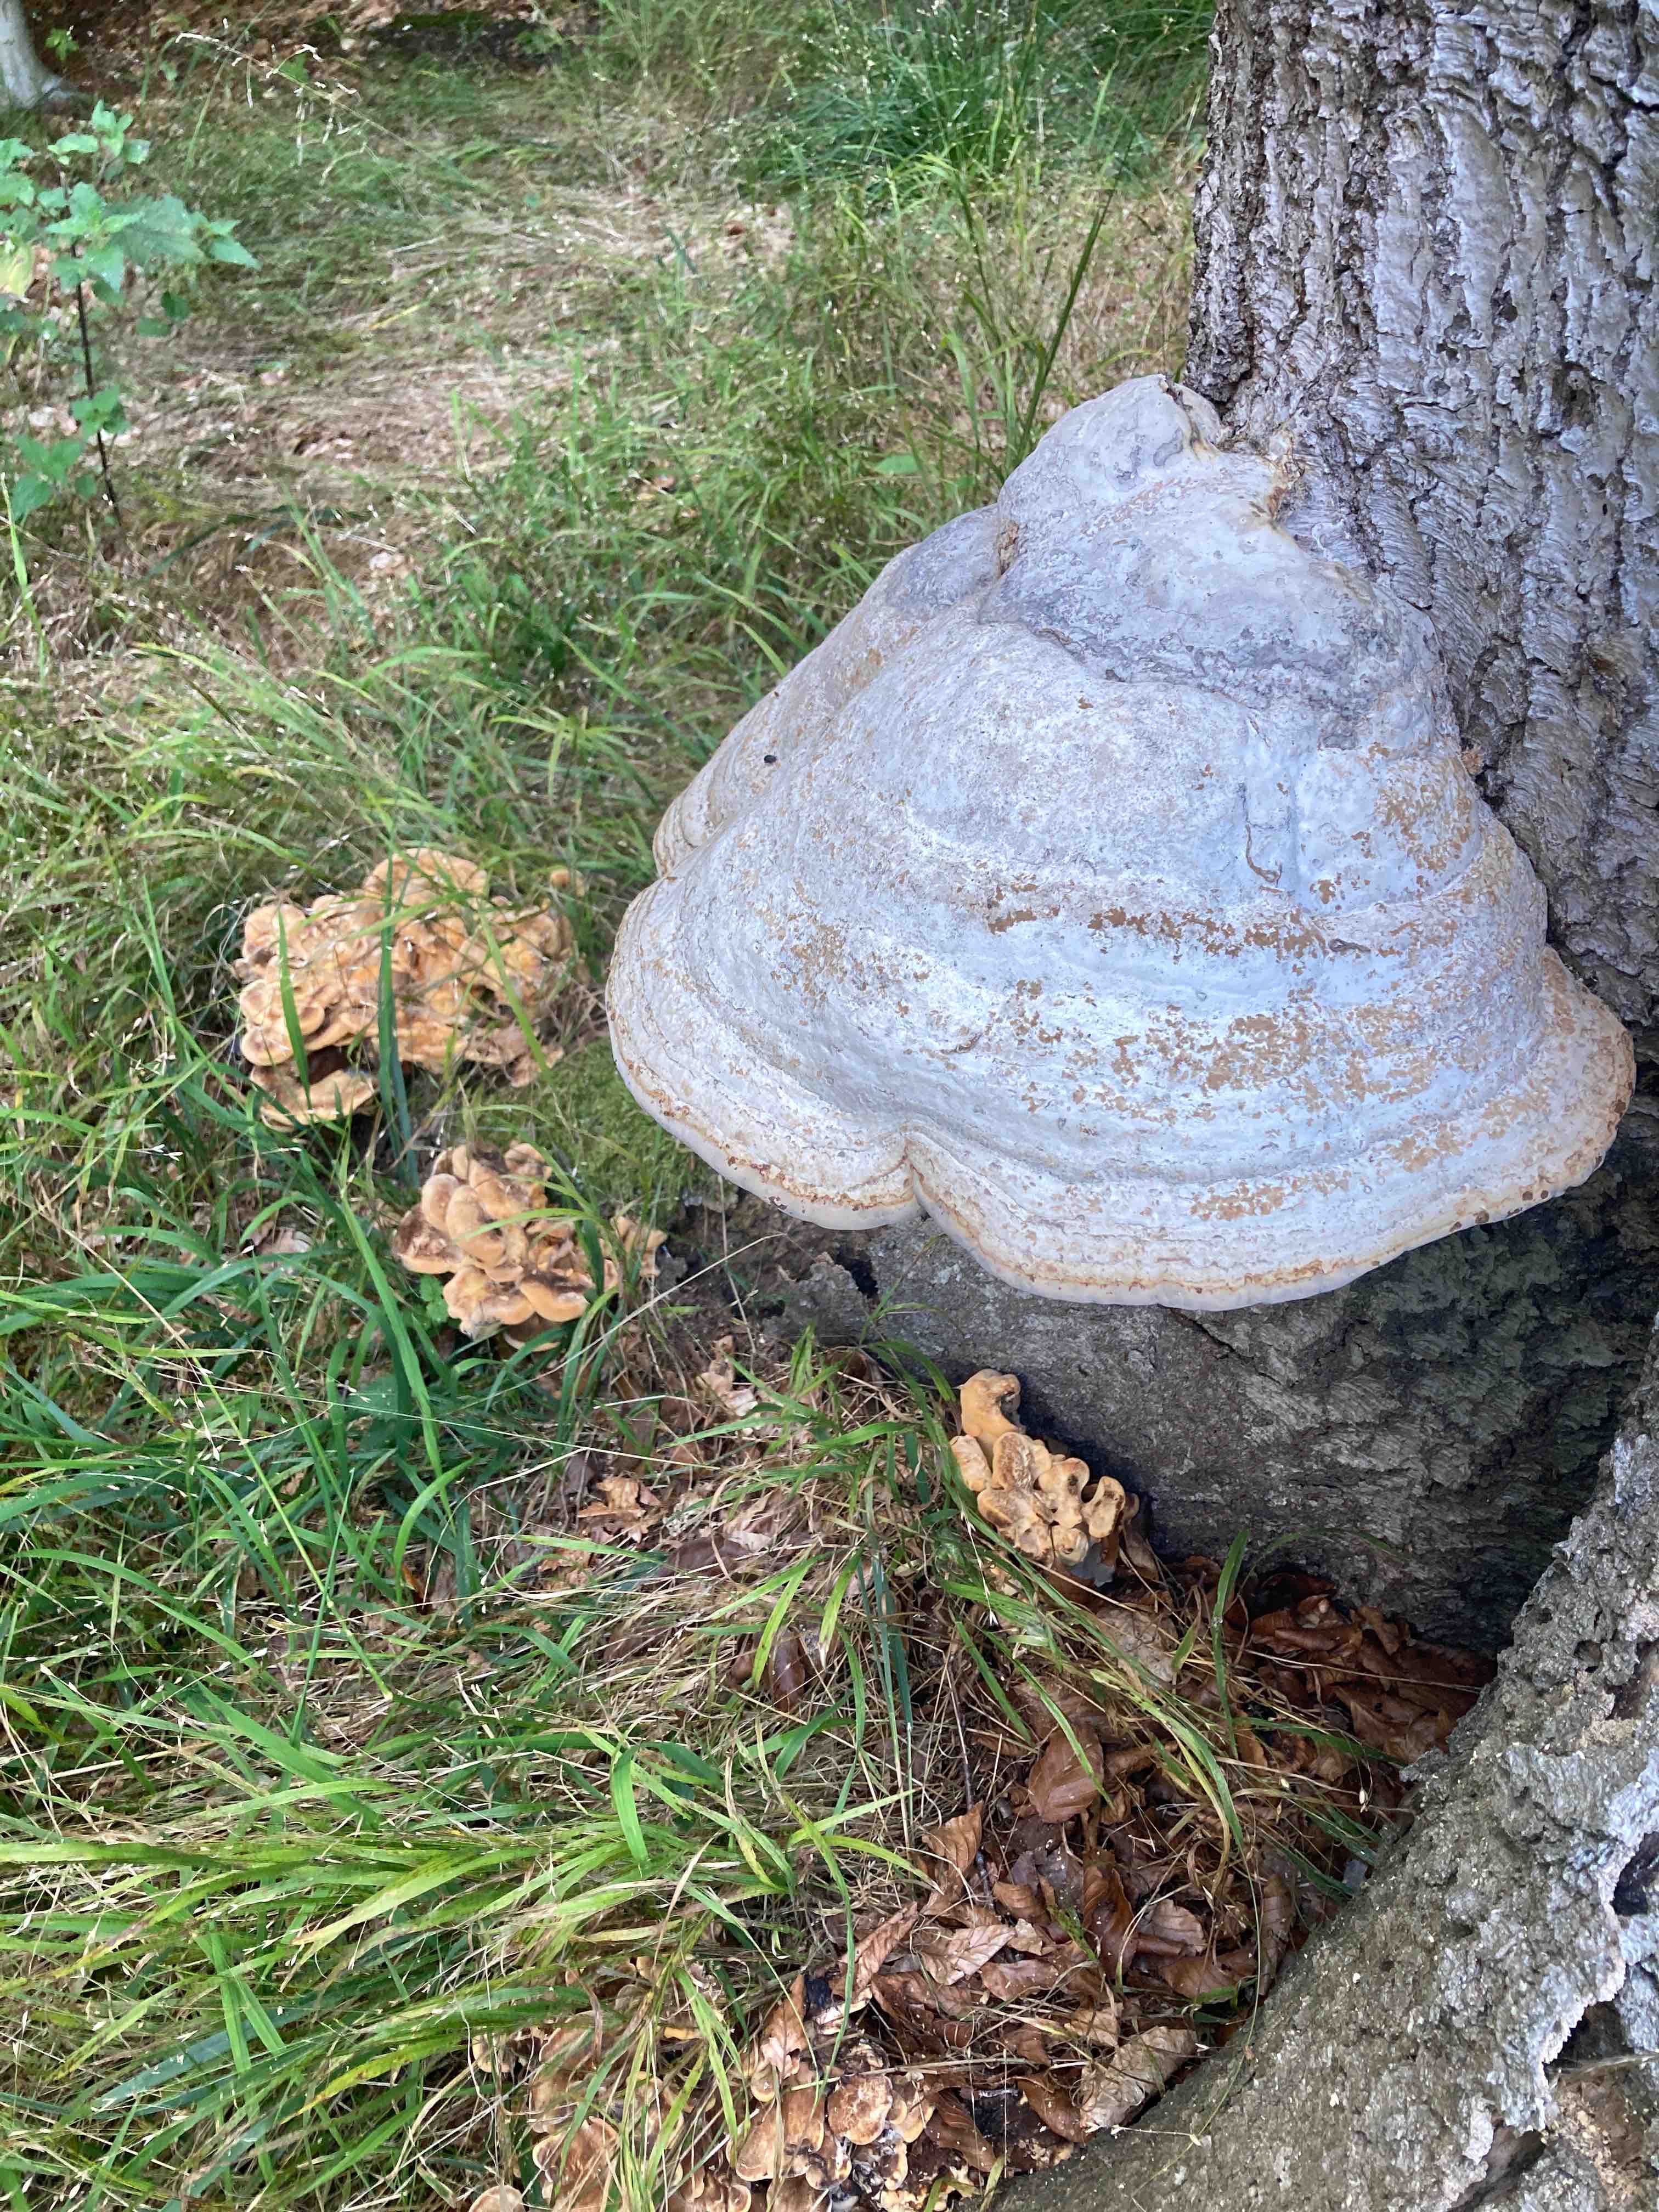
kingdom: Fungi
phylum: Basidiomycota
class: Agaricomycetes
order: Polyporales
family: Polyporaceae
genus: Fomes
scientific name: Fomes fomentarius
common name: tøndersvamp
